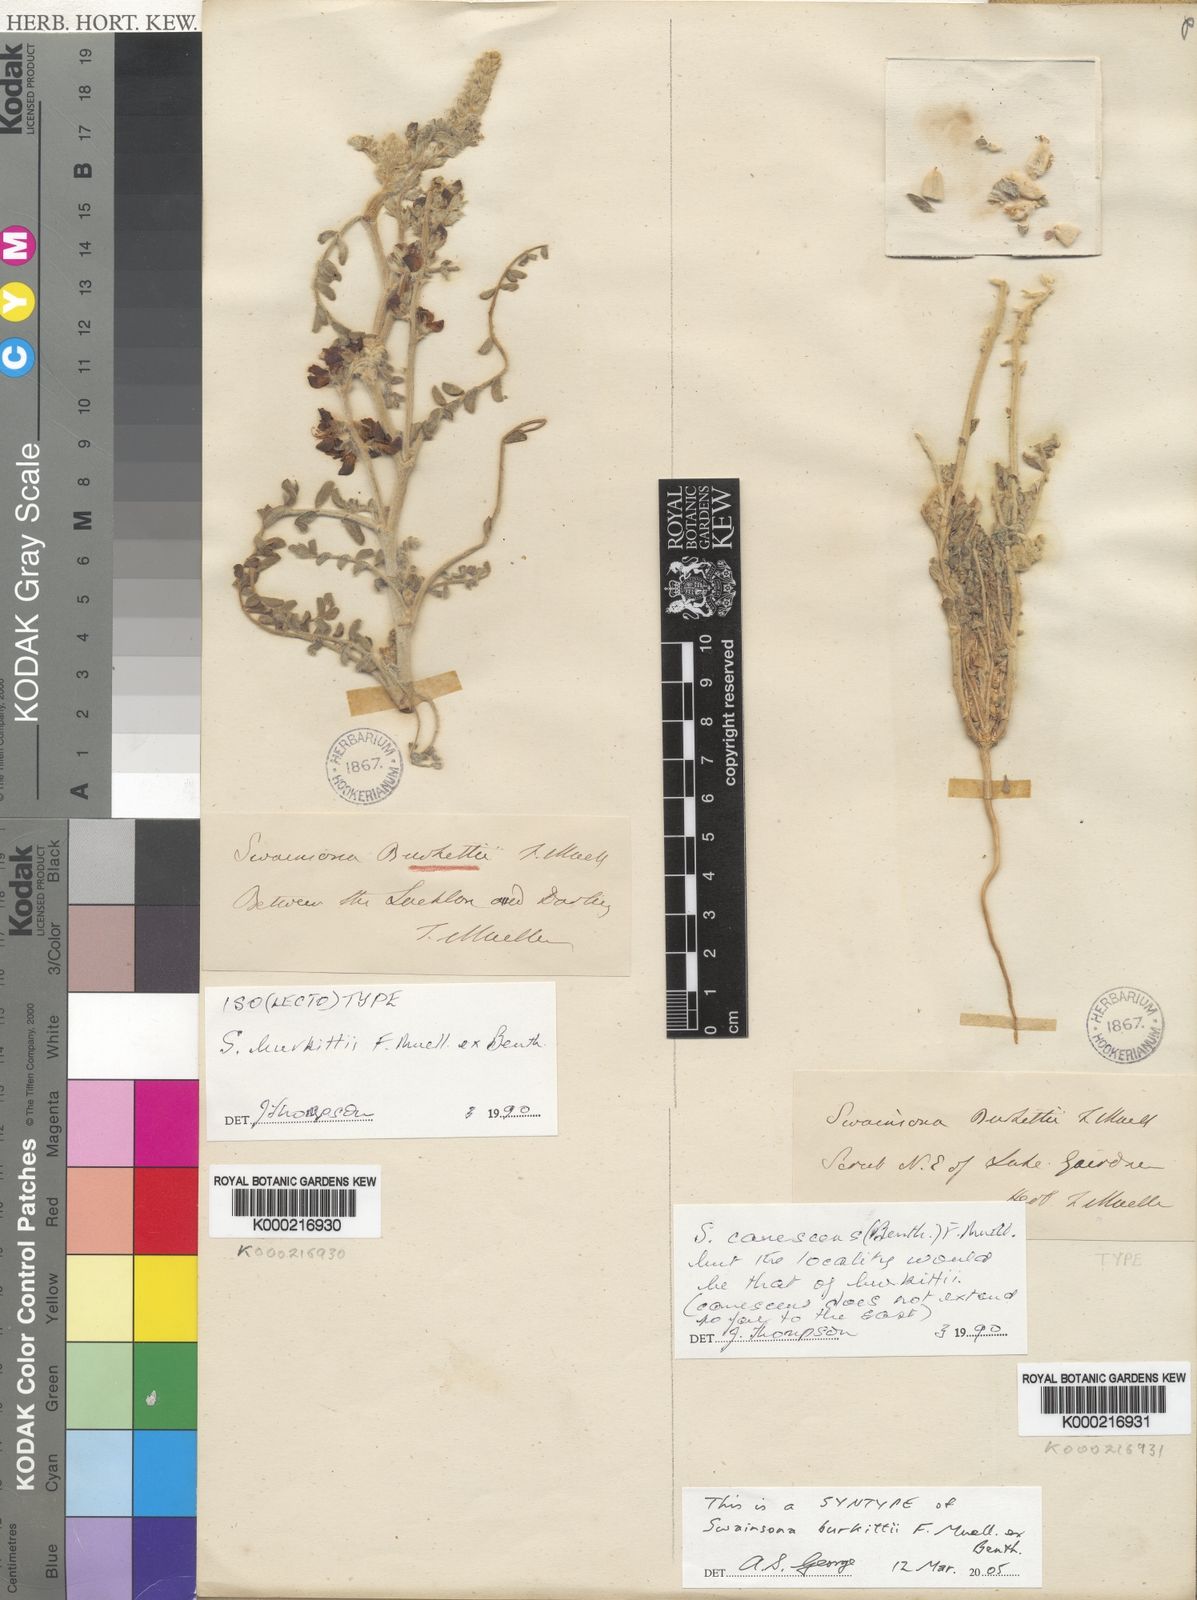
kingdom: Plantae
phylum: Tracheophyta
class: Magnoliopsida
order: Fabales
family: Fabaceae
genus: Swainsona
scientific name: Swainsona burkittii
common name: Woolly darling-pea
